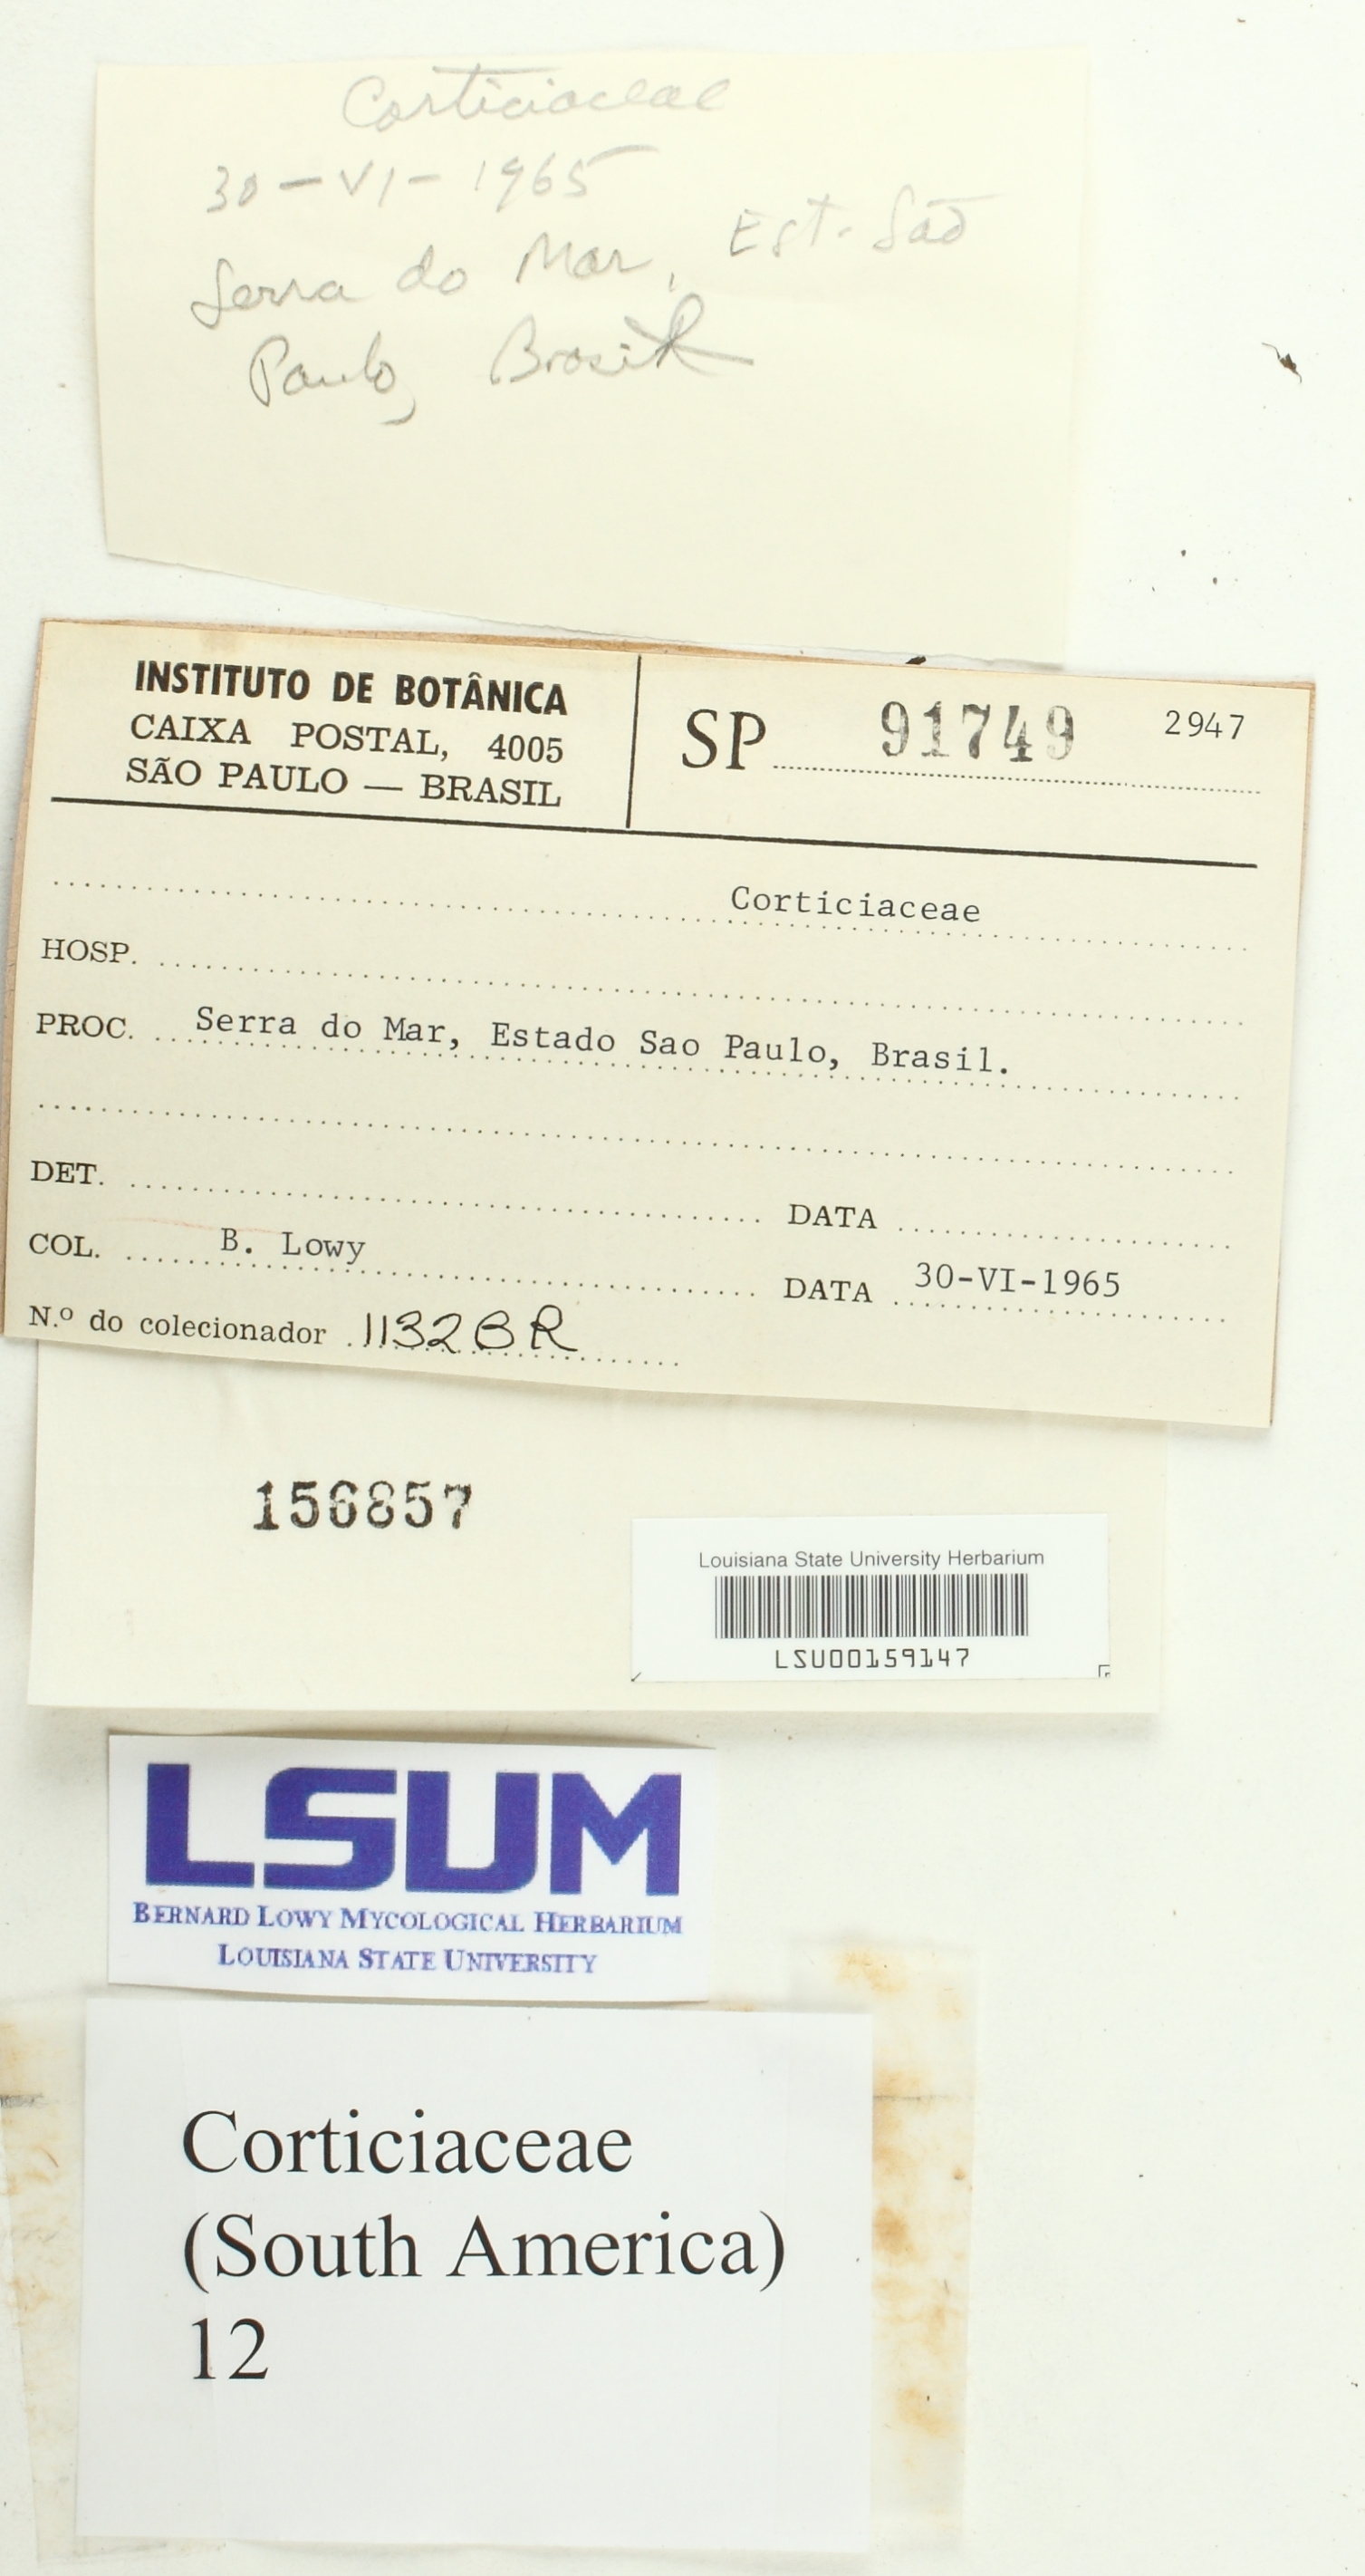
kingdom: Fungi
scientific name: Fungi
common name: Fungi
